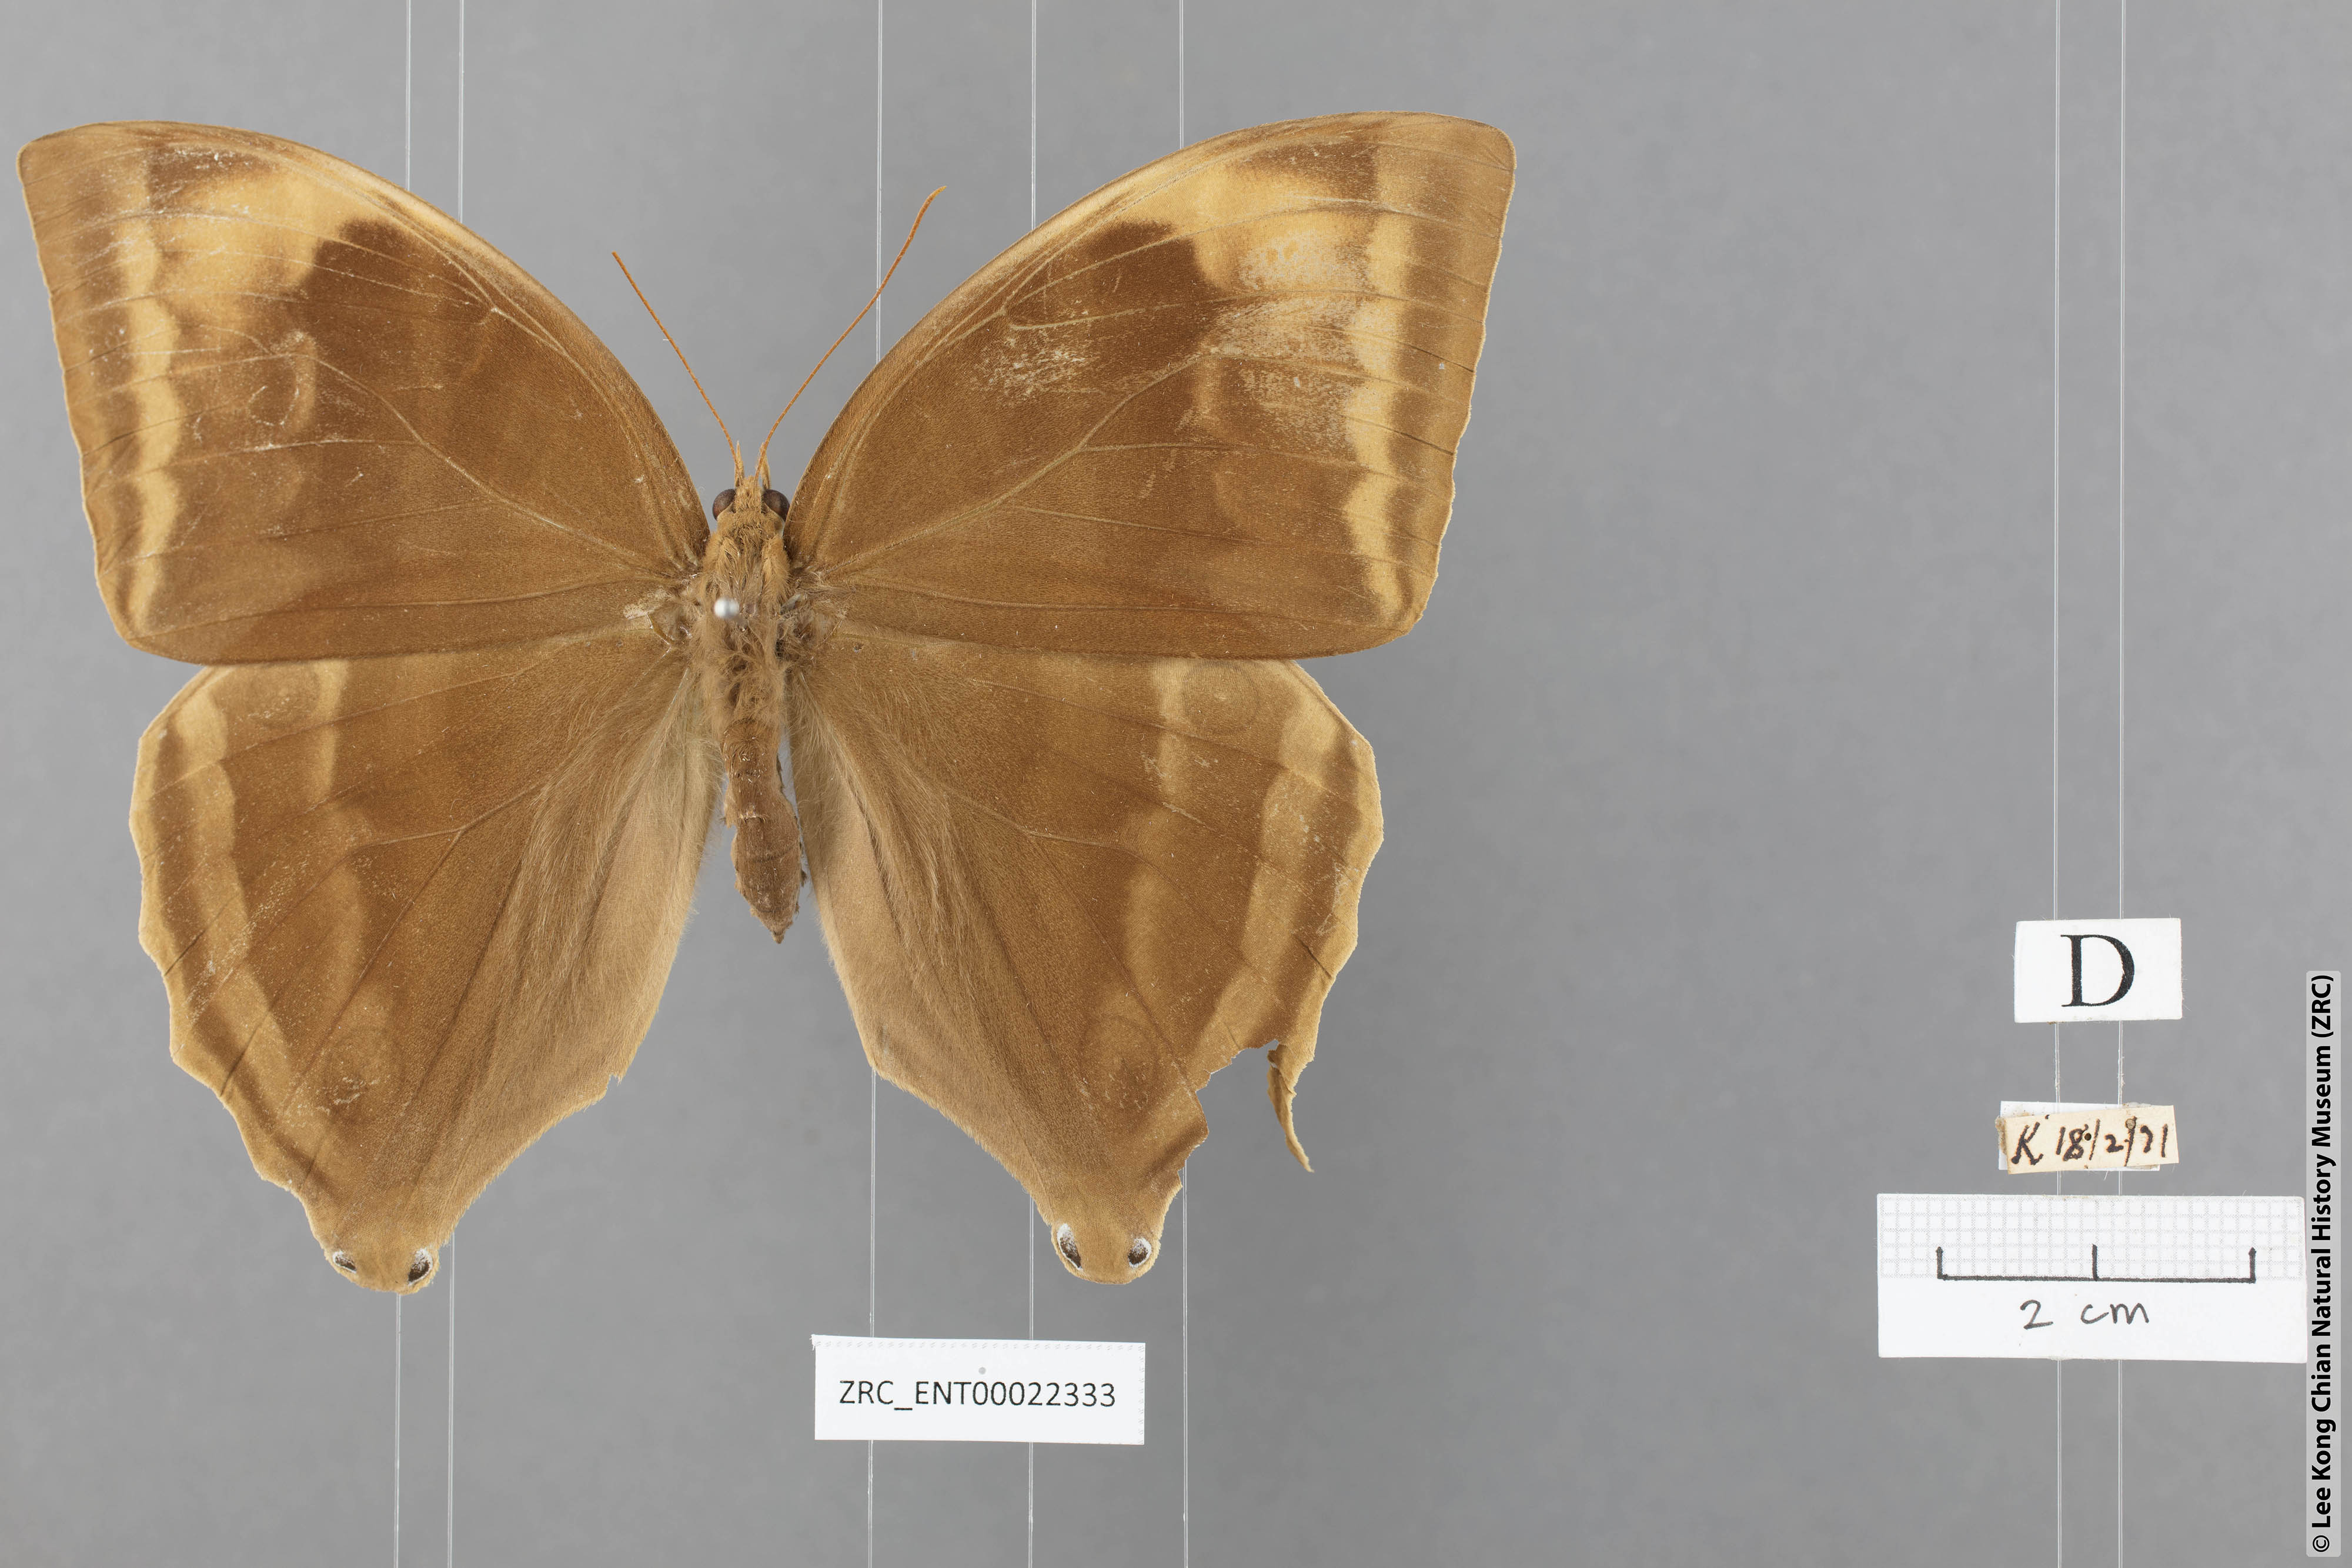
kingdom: Animalia
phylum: Arthropoda
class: Insecta
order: Lepidoptera
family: Nymphalidae
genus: Amathusia
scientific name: Amathusia phidippus
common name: Palm king
